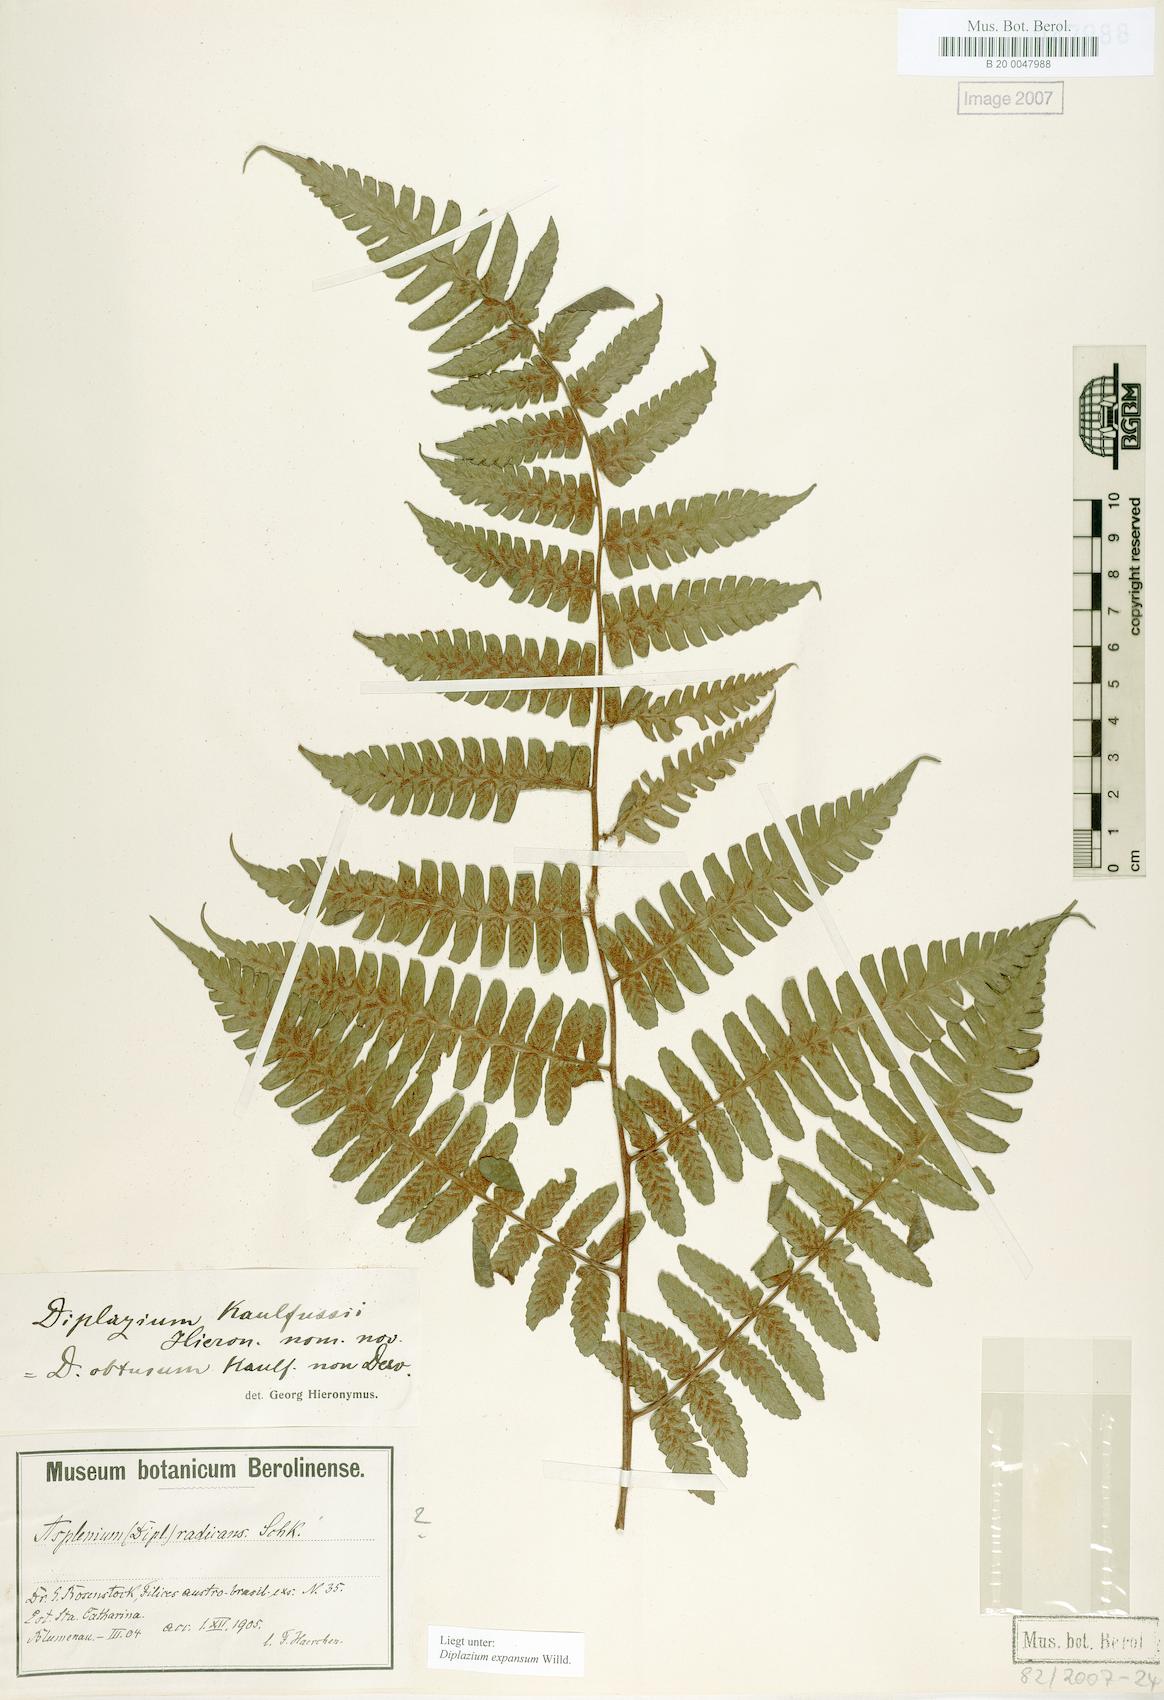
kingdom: Plantae
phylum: Tracheophyta
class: Polypodiopsida
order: Polypodiales
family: Athyriaceae
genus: Diplazium
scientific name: Diplazium expansum
